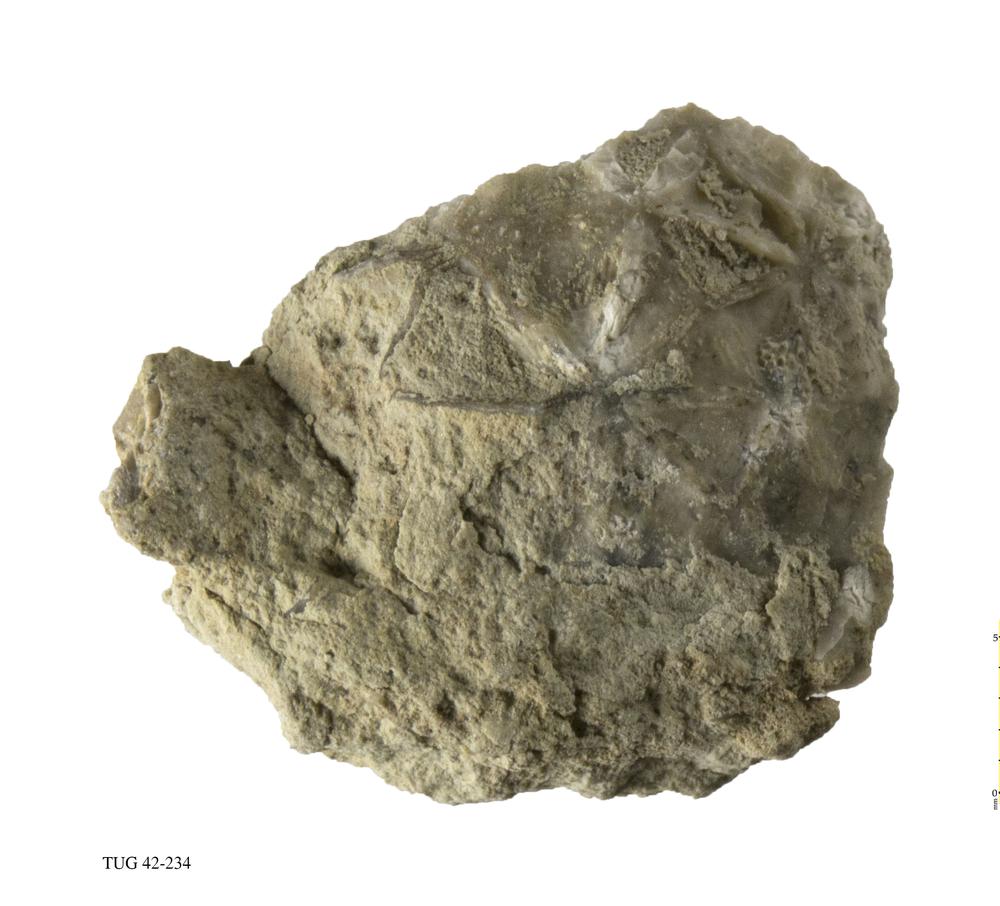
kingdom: Animalia
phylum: Echinodermata
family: Caryocystitidae
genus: Heliocrinites
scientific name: Heliocrinites
